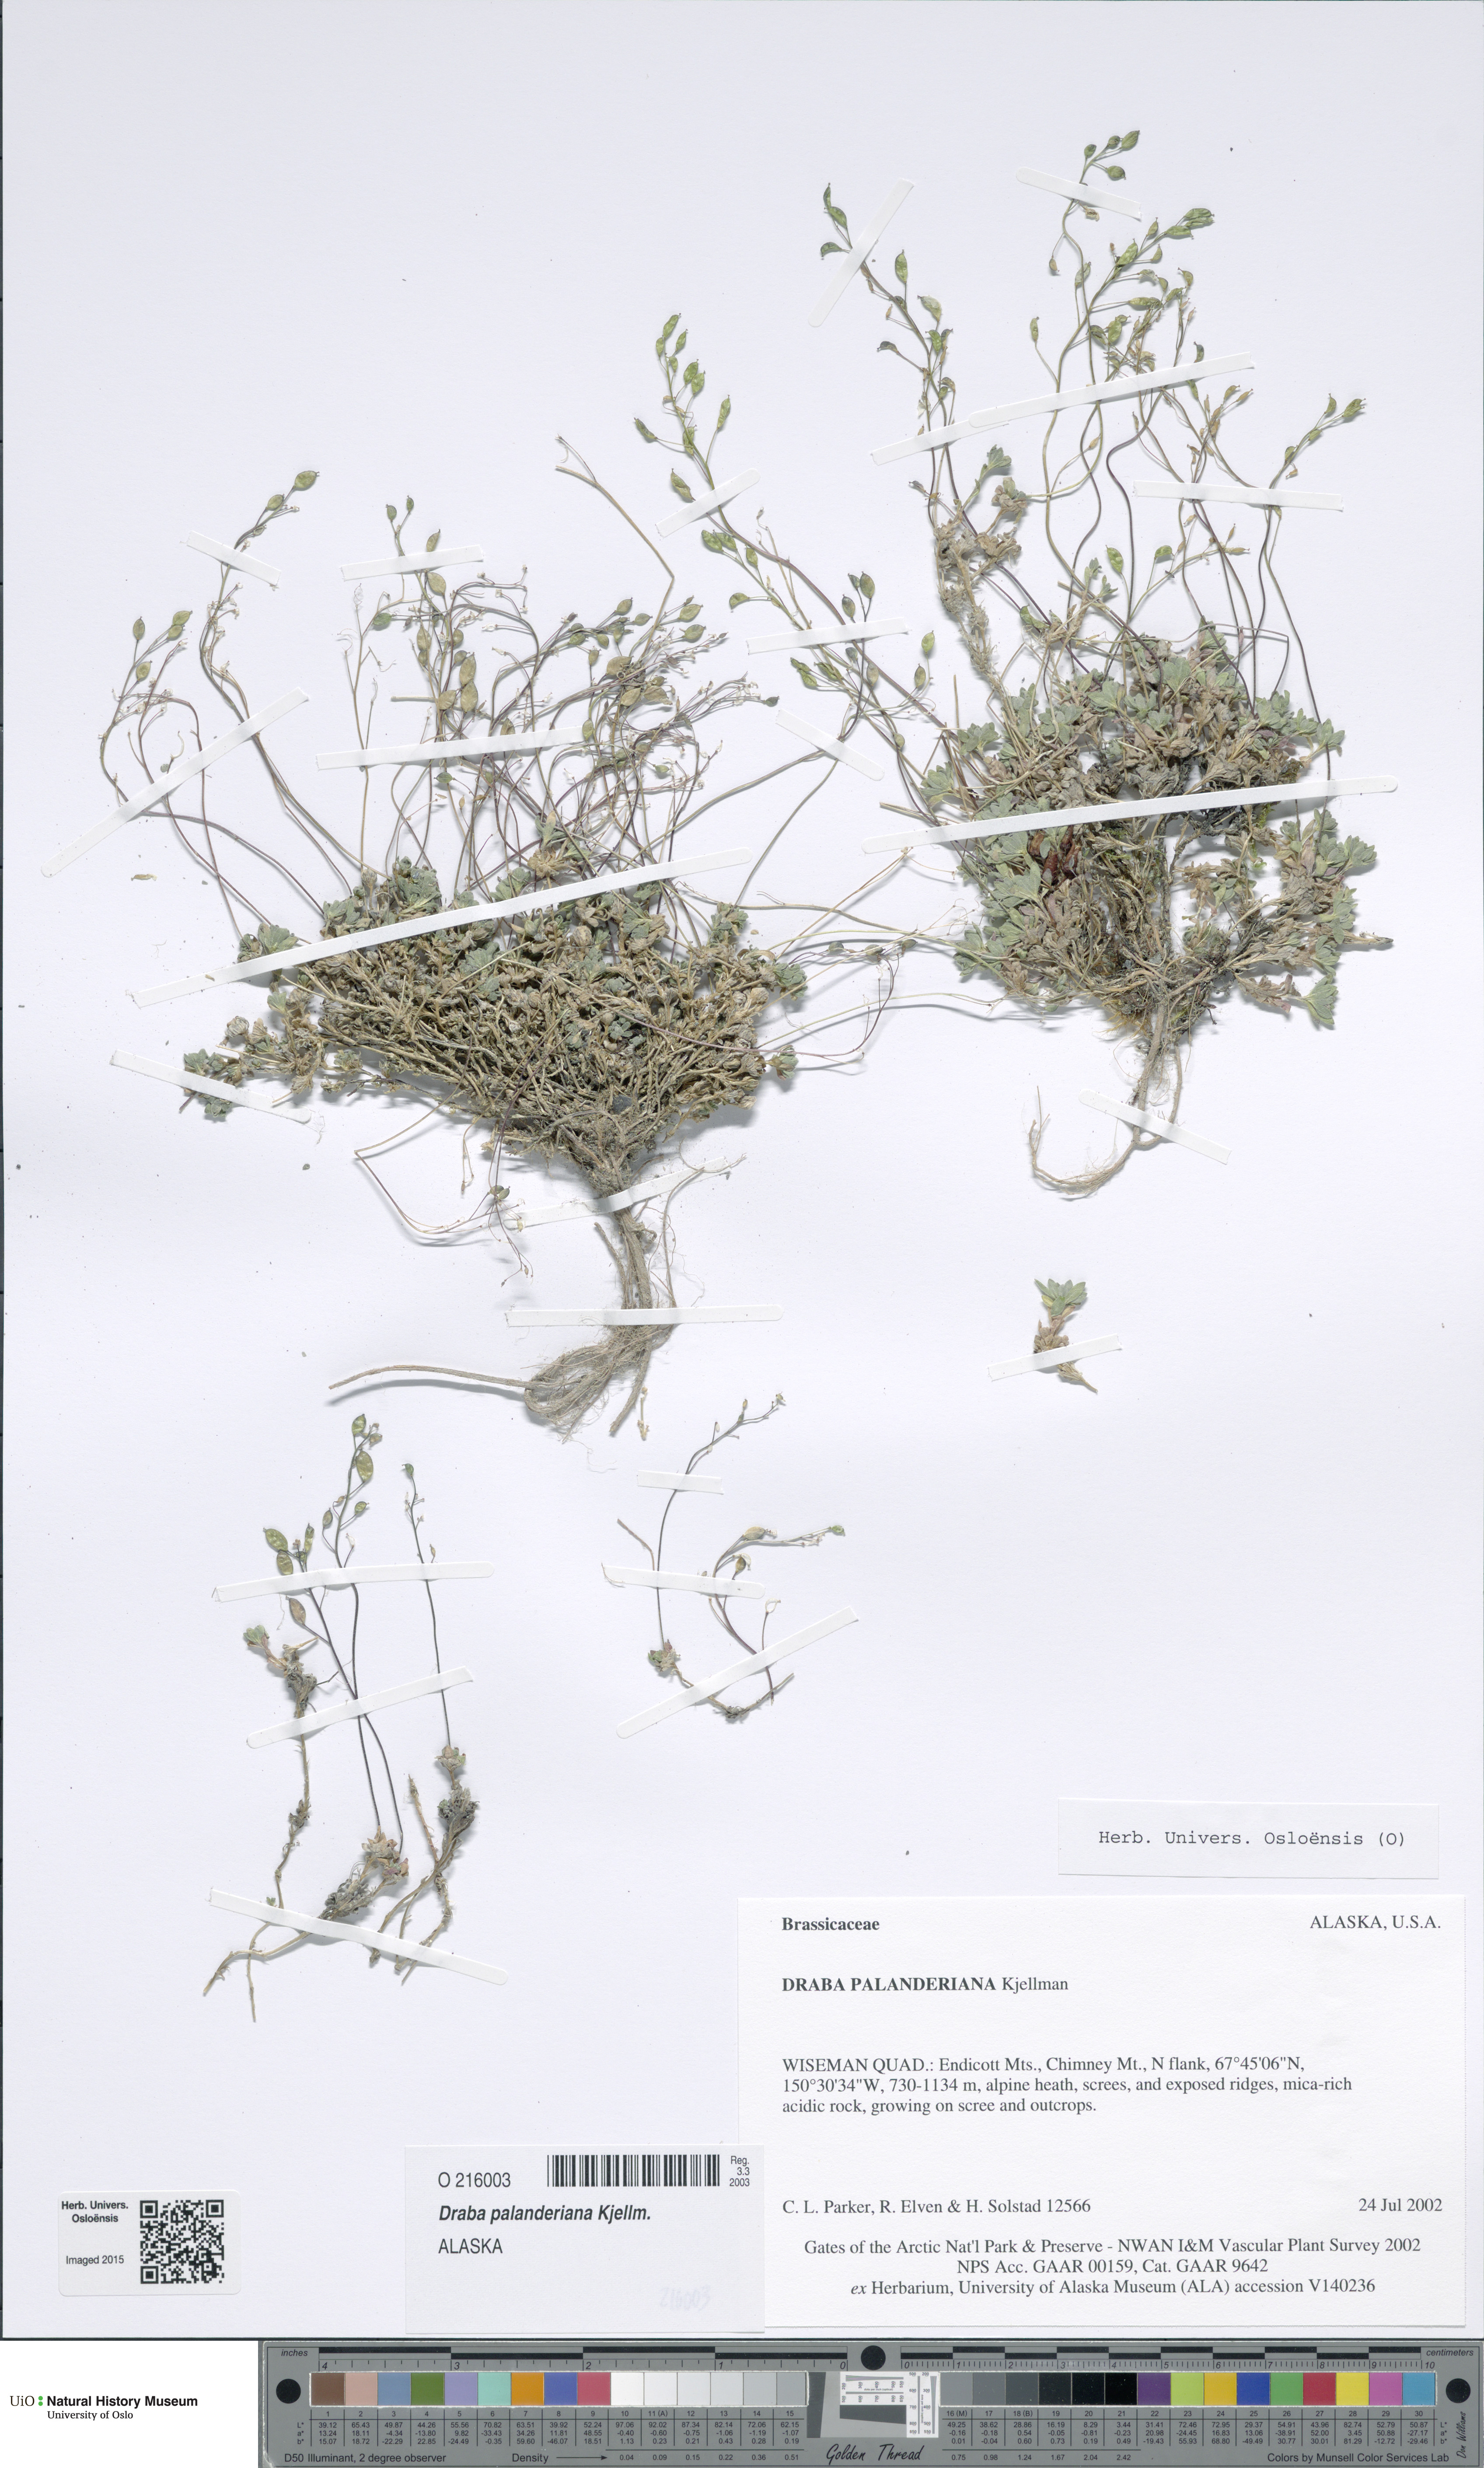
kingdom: Plantae
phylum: Tracheophyta
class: Magnoliopsida
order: Brassicales
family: Brassicaceae
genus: Draba
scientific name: Draba palanderiana
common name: Palander's draba
